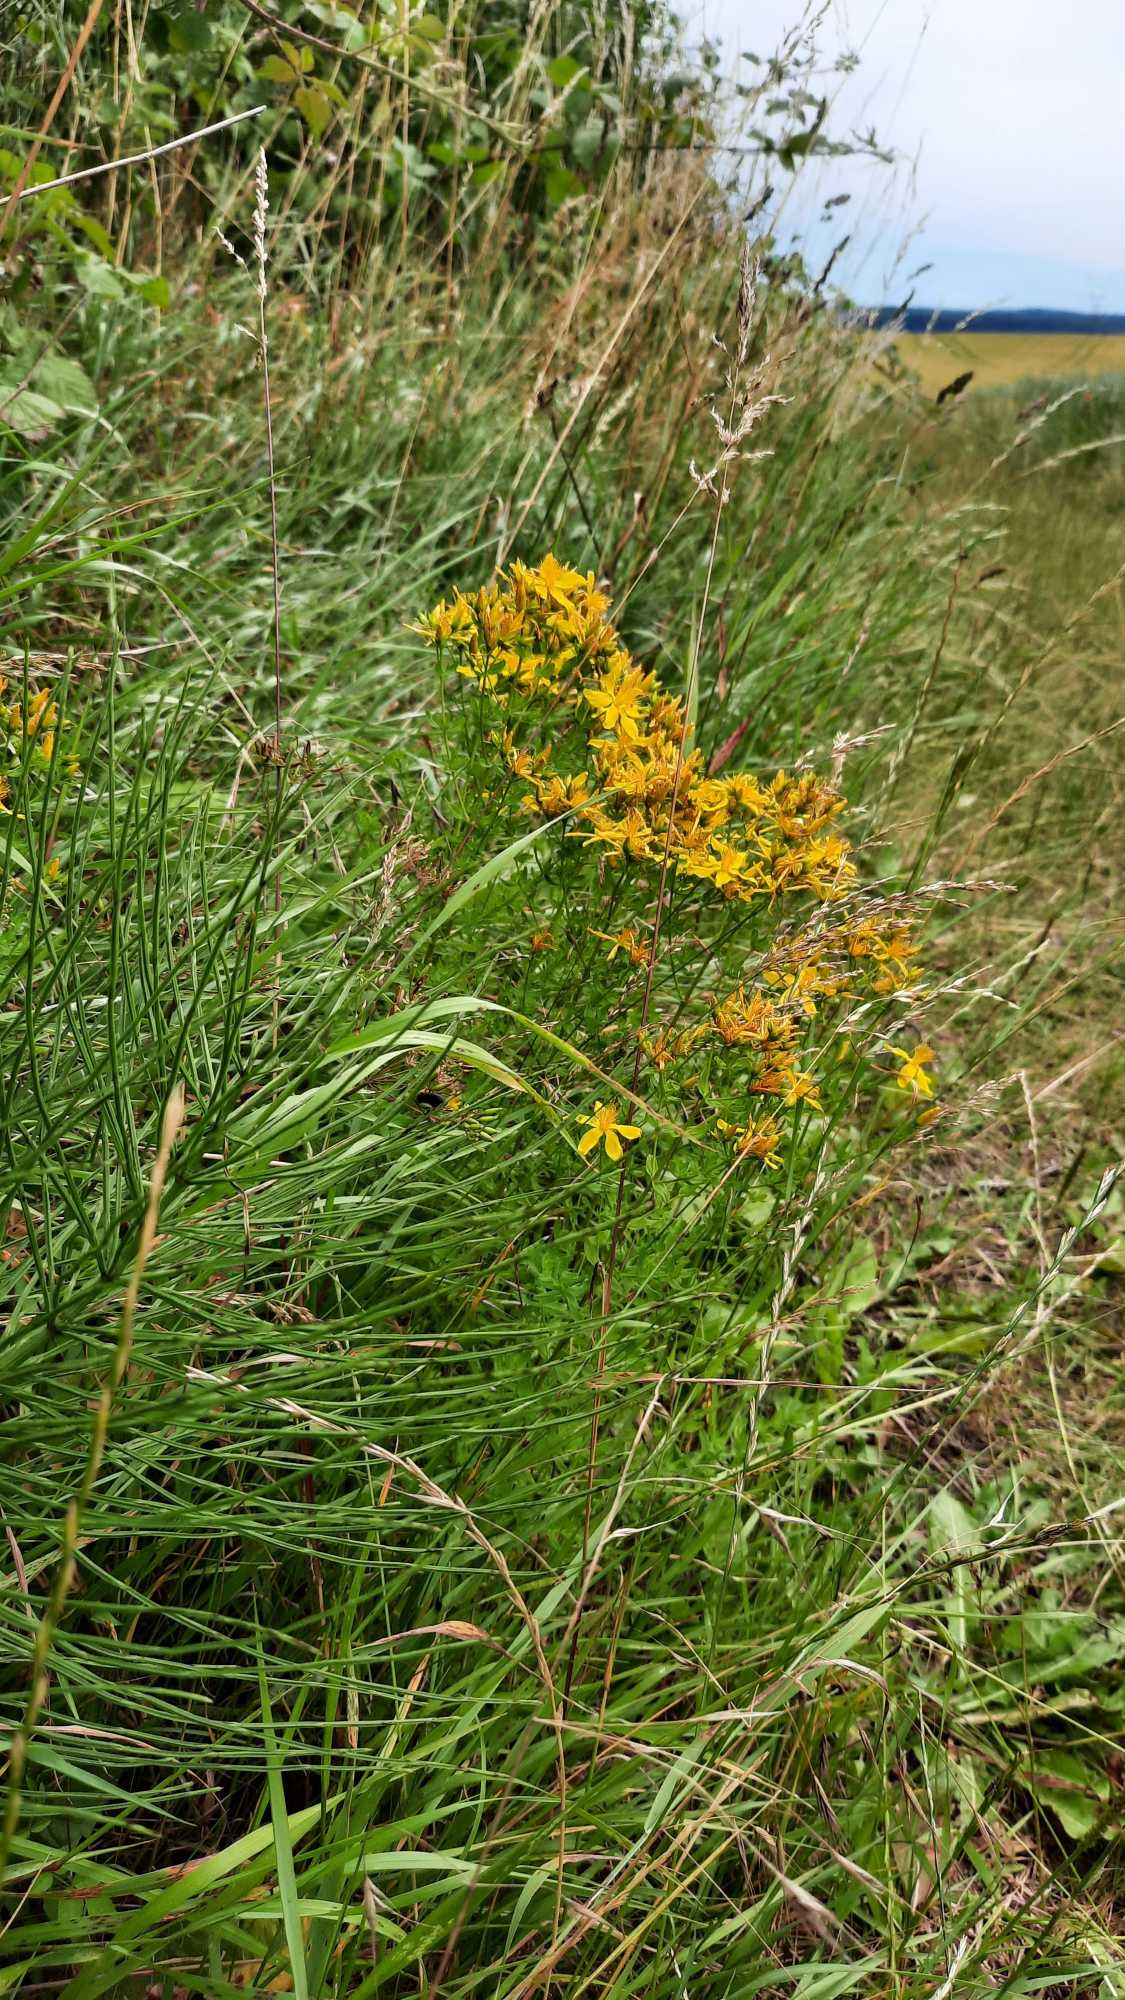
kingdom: Plantae
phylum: Tracheophyta
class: Magnoliopsida
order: Malpighiales
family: Hypericaceae
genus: Hypericum
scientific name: Hypericum perforatum
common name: Prikbladet perikon
